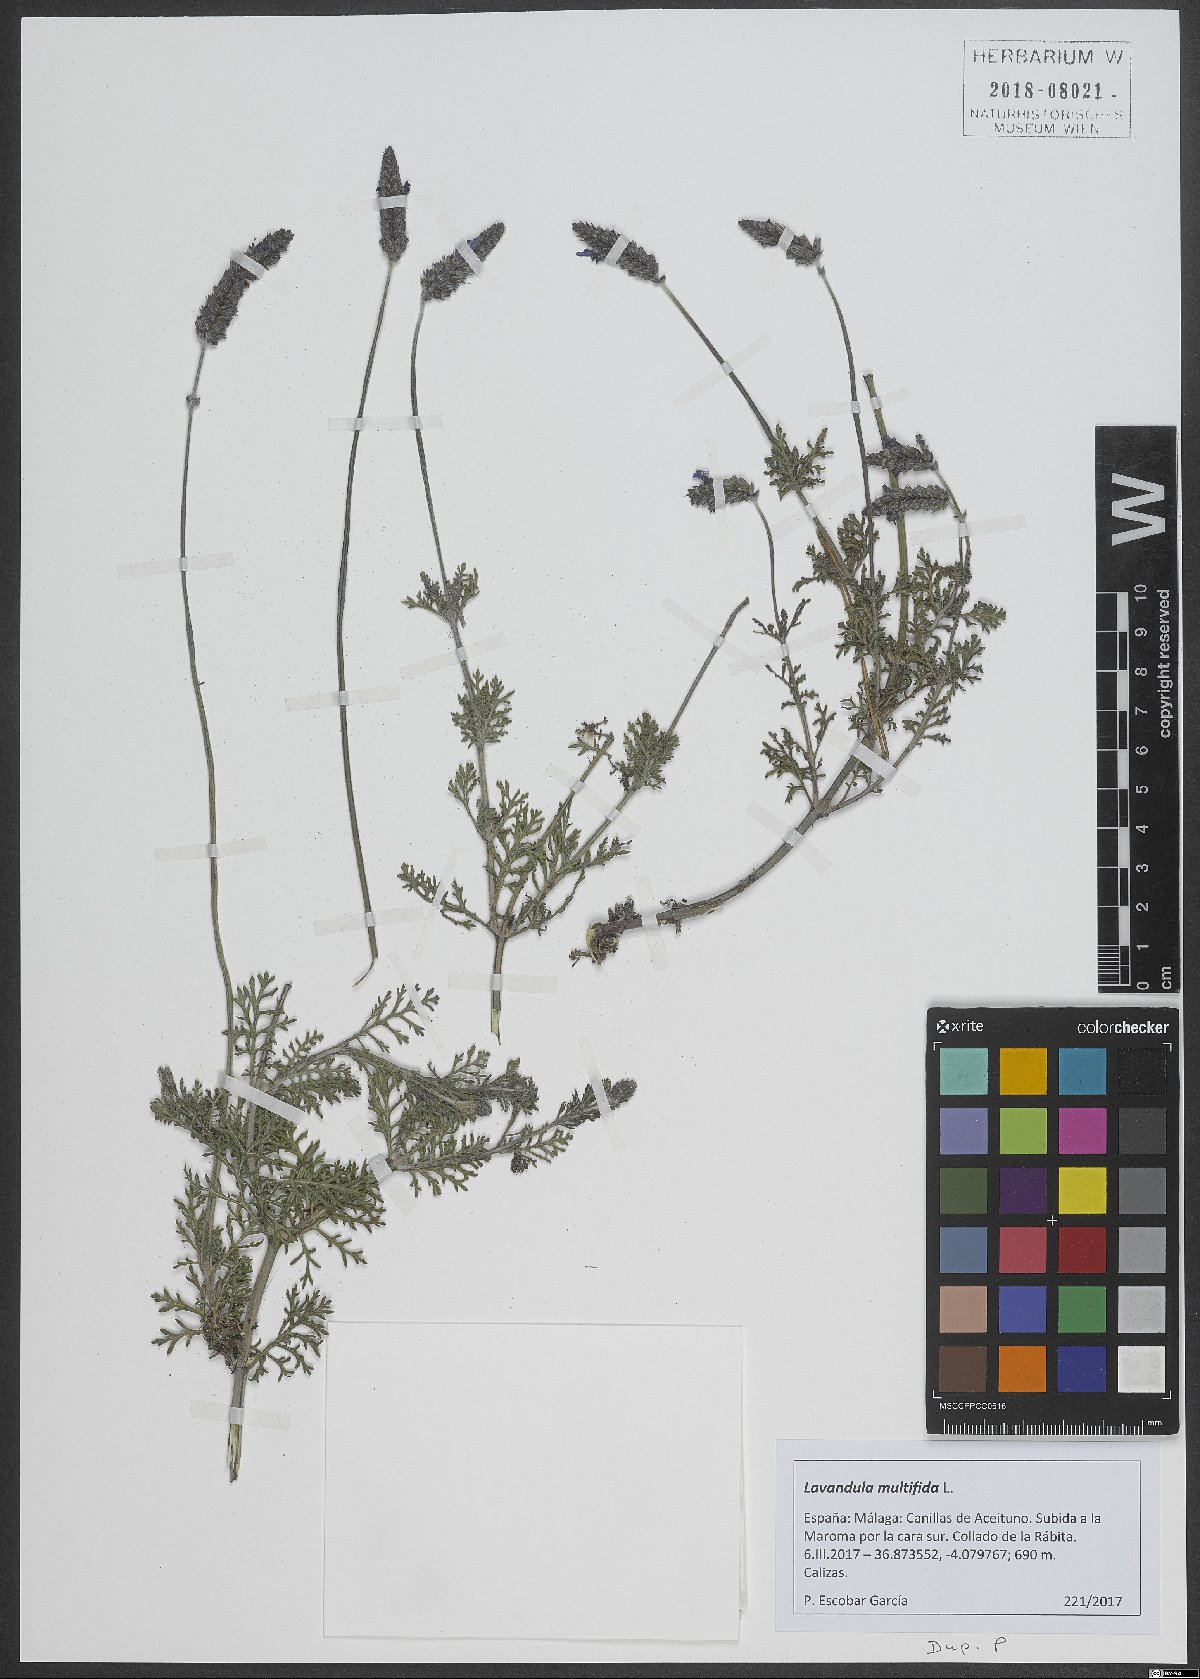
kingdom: Plantae
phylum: Tracheophyta
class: Magnoliopsida
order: Lamiales
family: Lamiaceae
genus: Lavandula
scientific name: Lavandula multifida
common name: Fern-leaf lavender
